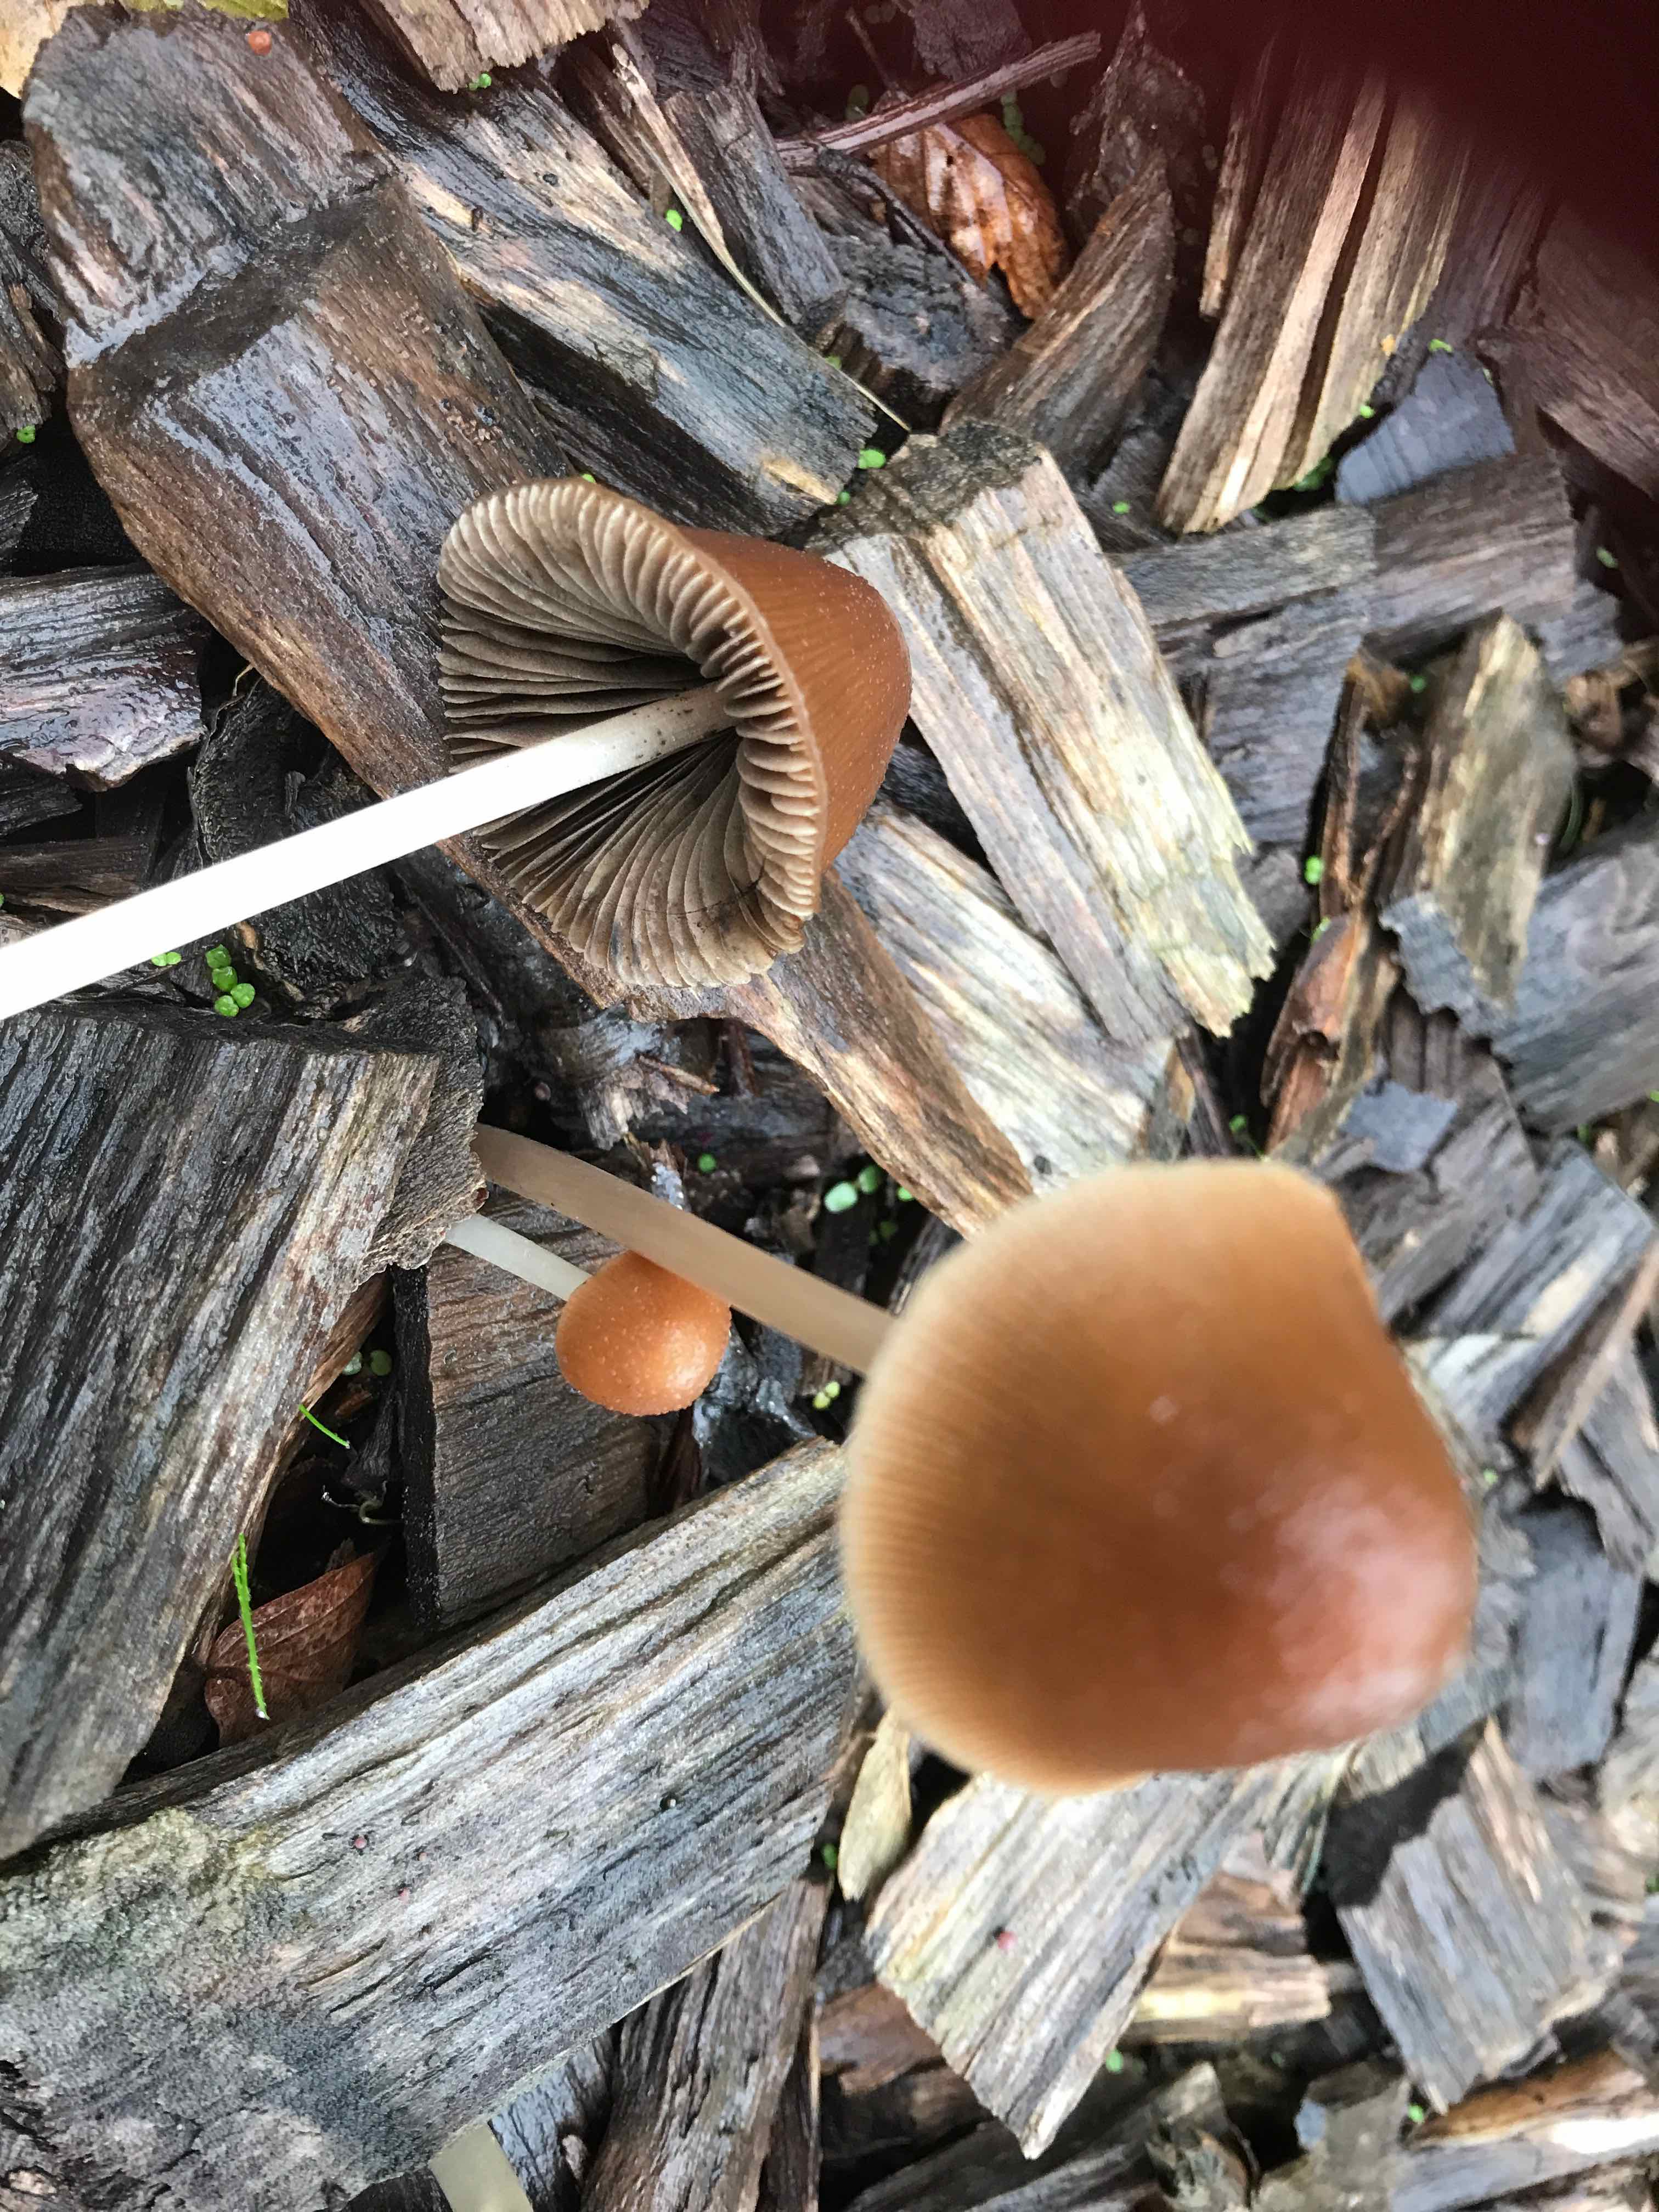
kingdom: Fungi
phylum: Basidiomycota
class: Agaricomycetes
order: Agaricales
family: Psathyrellaceae
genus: Parasola
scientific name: Parasola conopilea
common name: kegle-hjulhat
